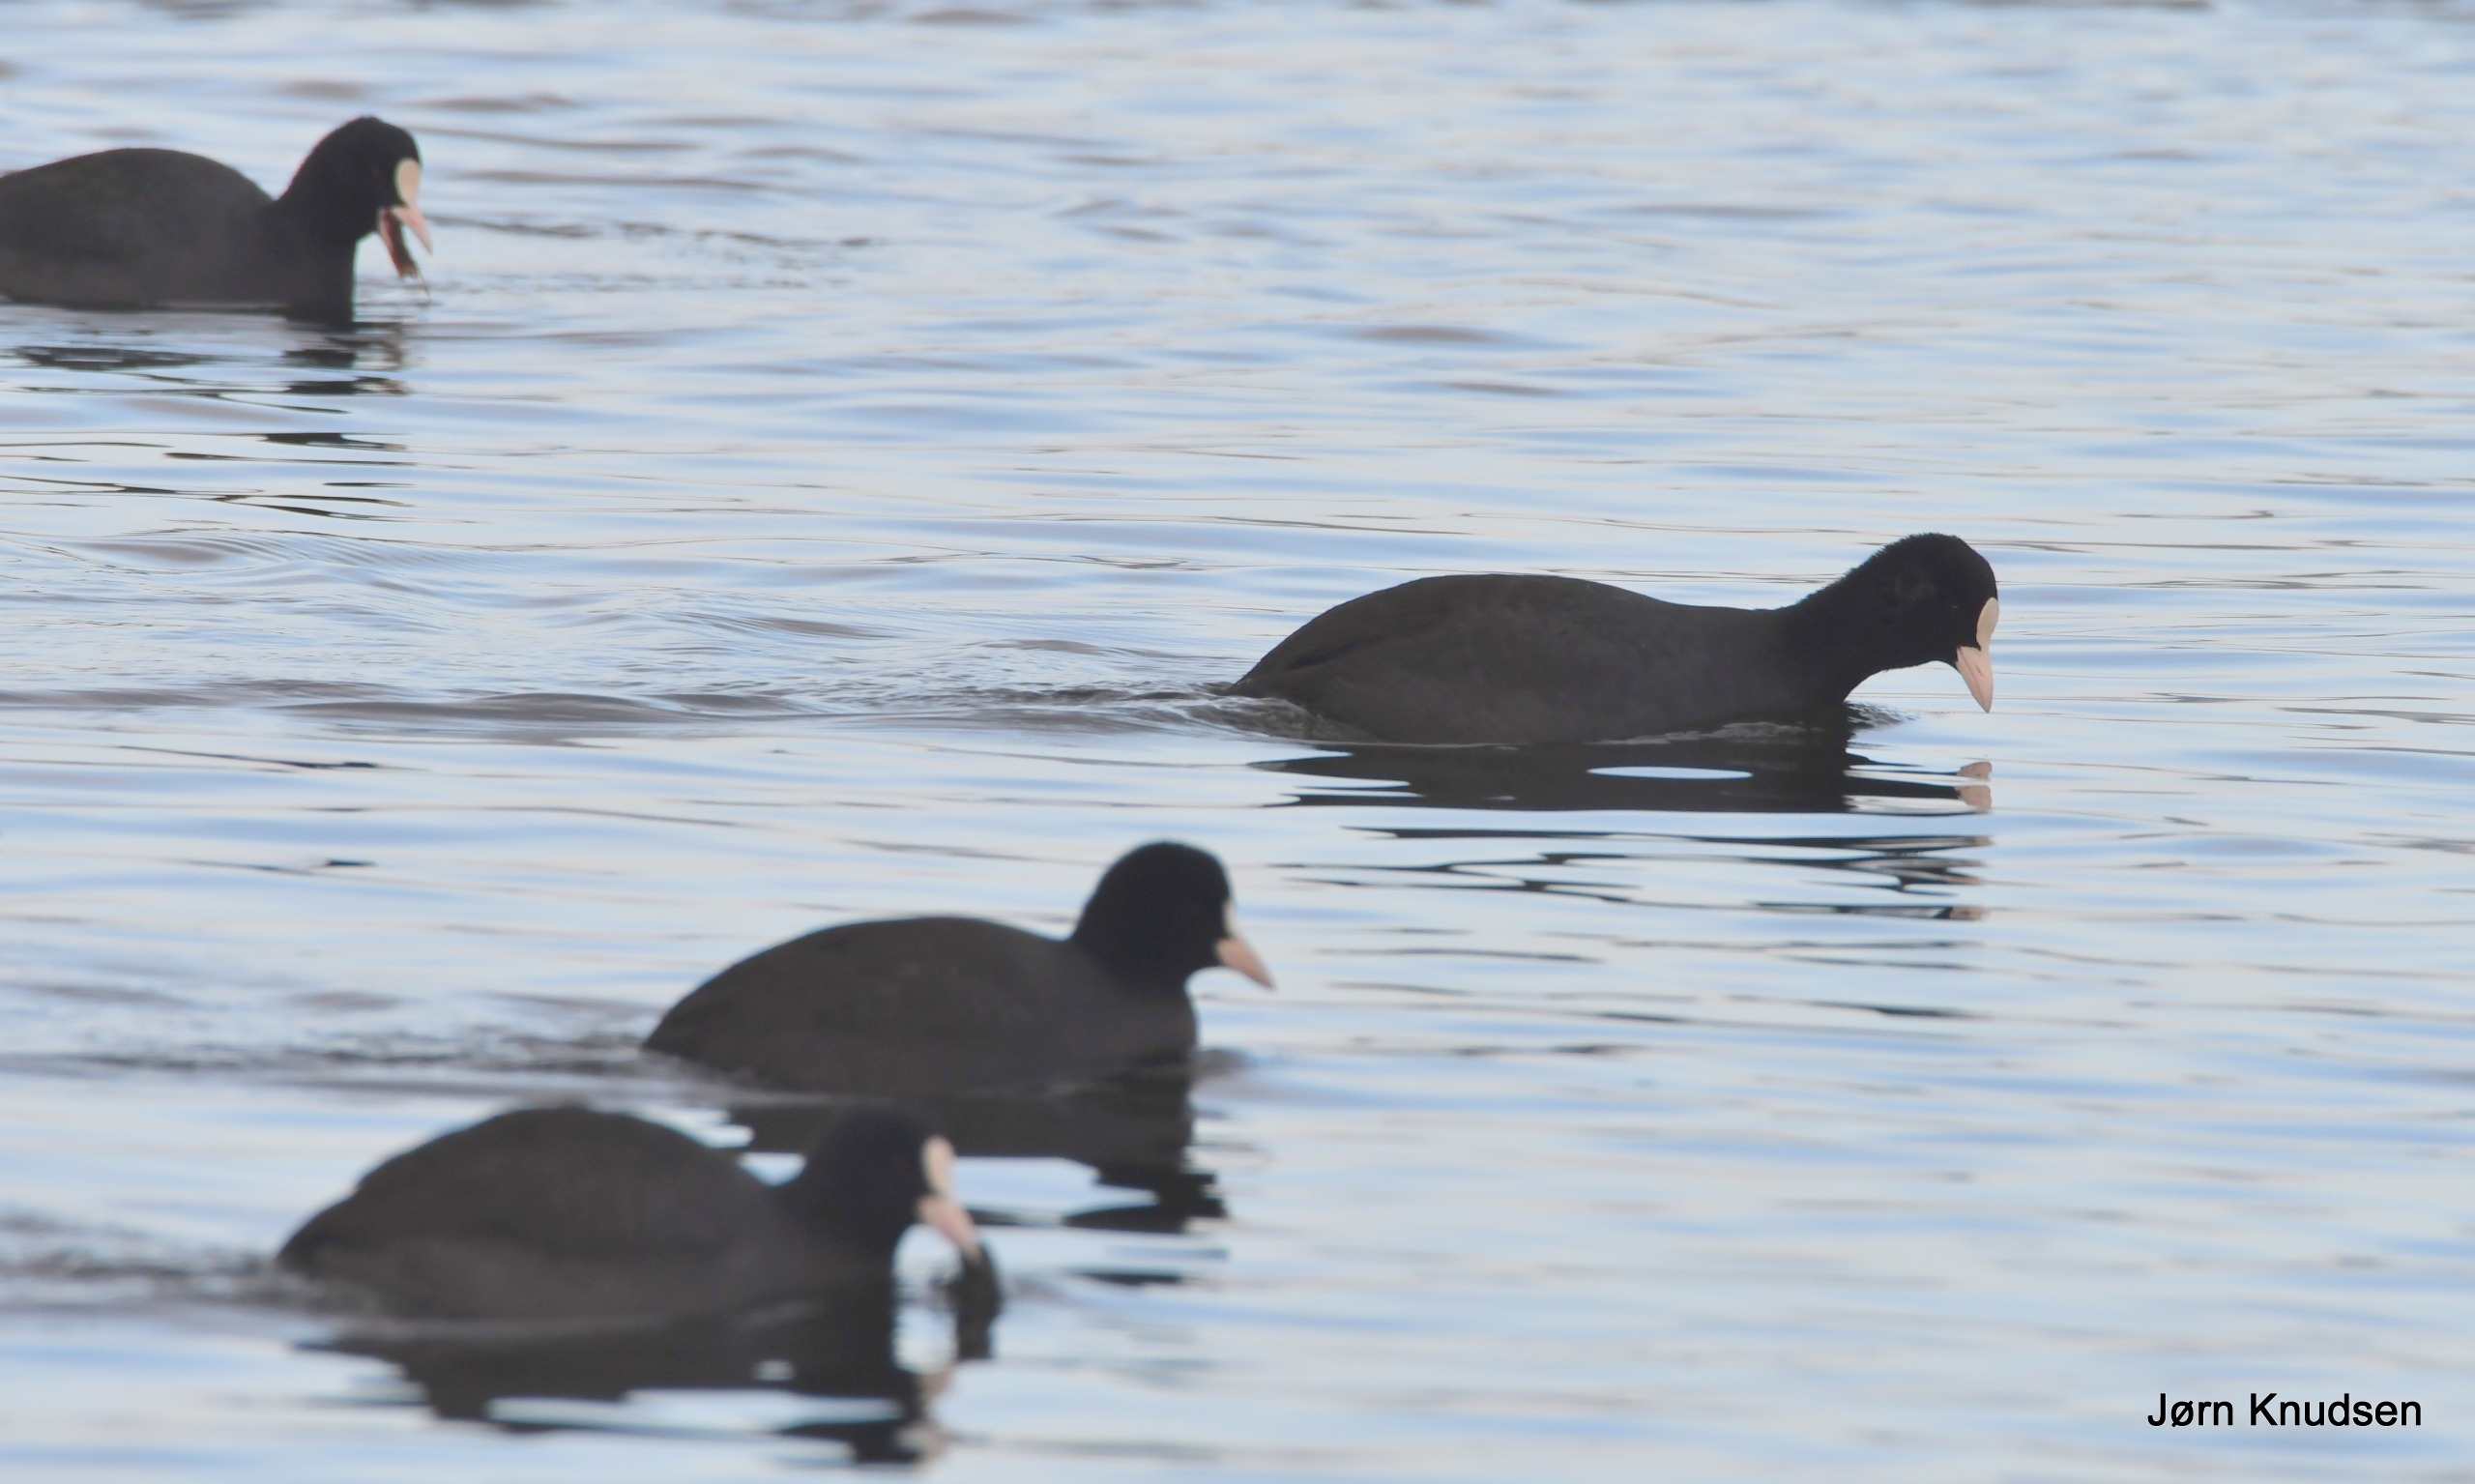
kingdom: Animalia
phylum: Chordata
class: Aves
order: Gruiformes
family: Rallidae
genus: Fulica
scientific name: Fulica atra
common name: Blishøne
